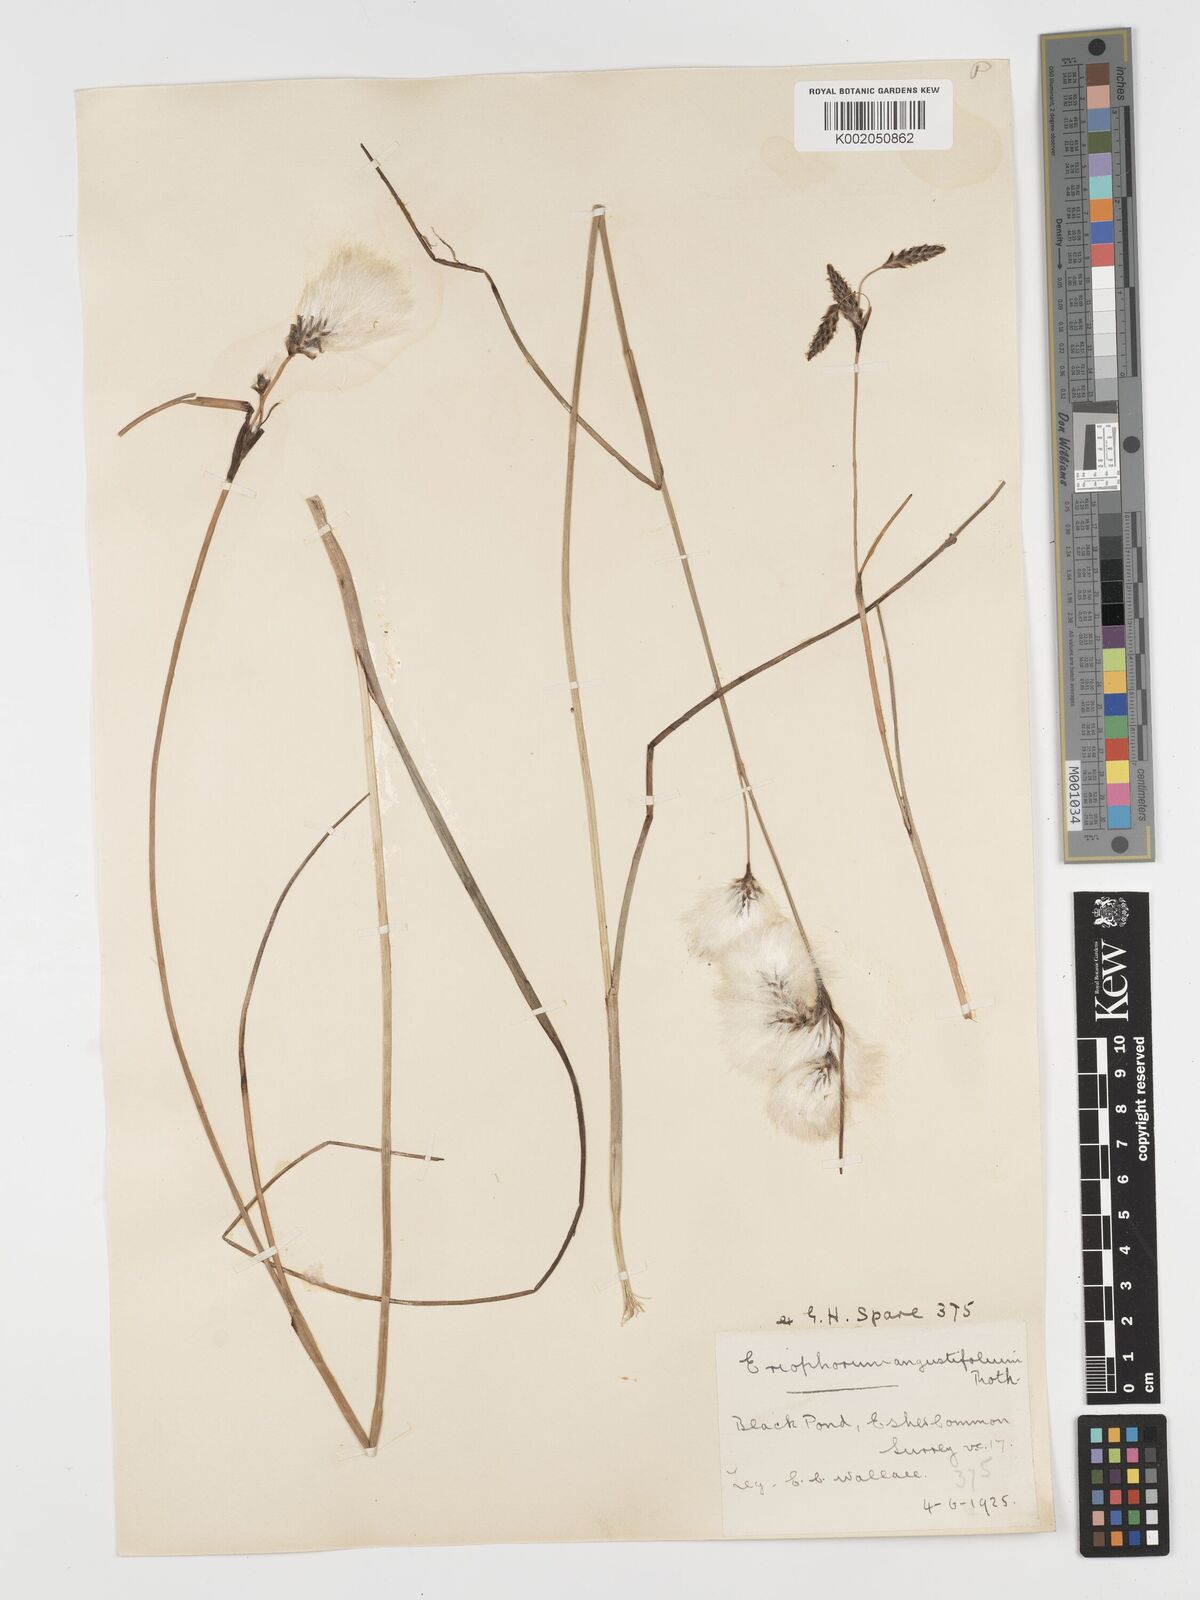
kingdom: Plantae
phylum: Tracheophyta
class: Liliopsida
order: Poales
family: Cyperaceae
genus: Eriophorum
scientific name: Eriophorum angustifolium
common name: Common cottongrass
